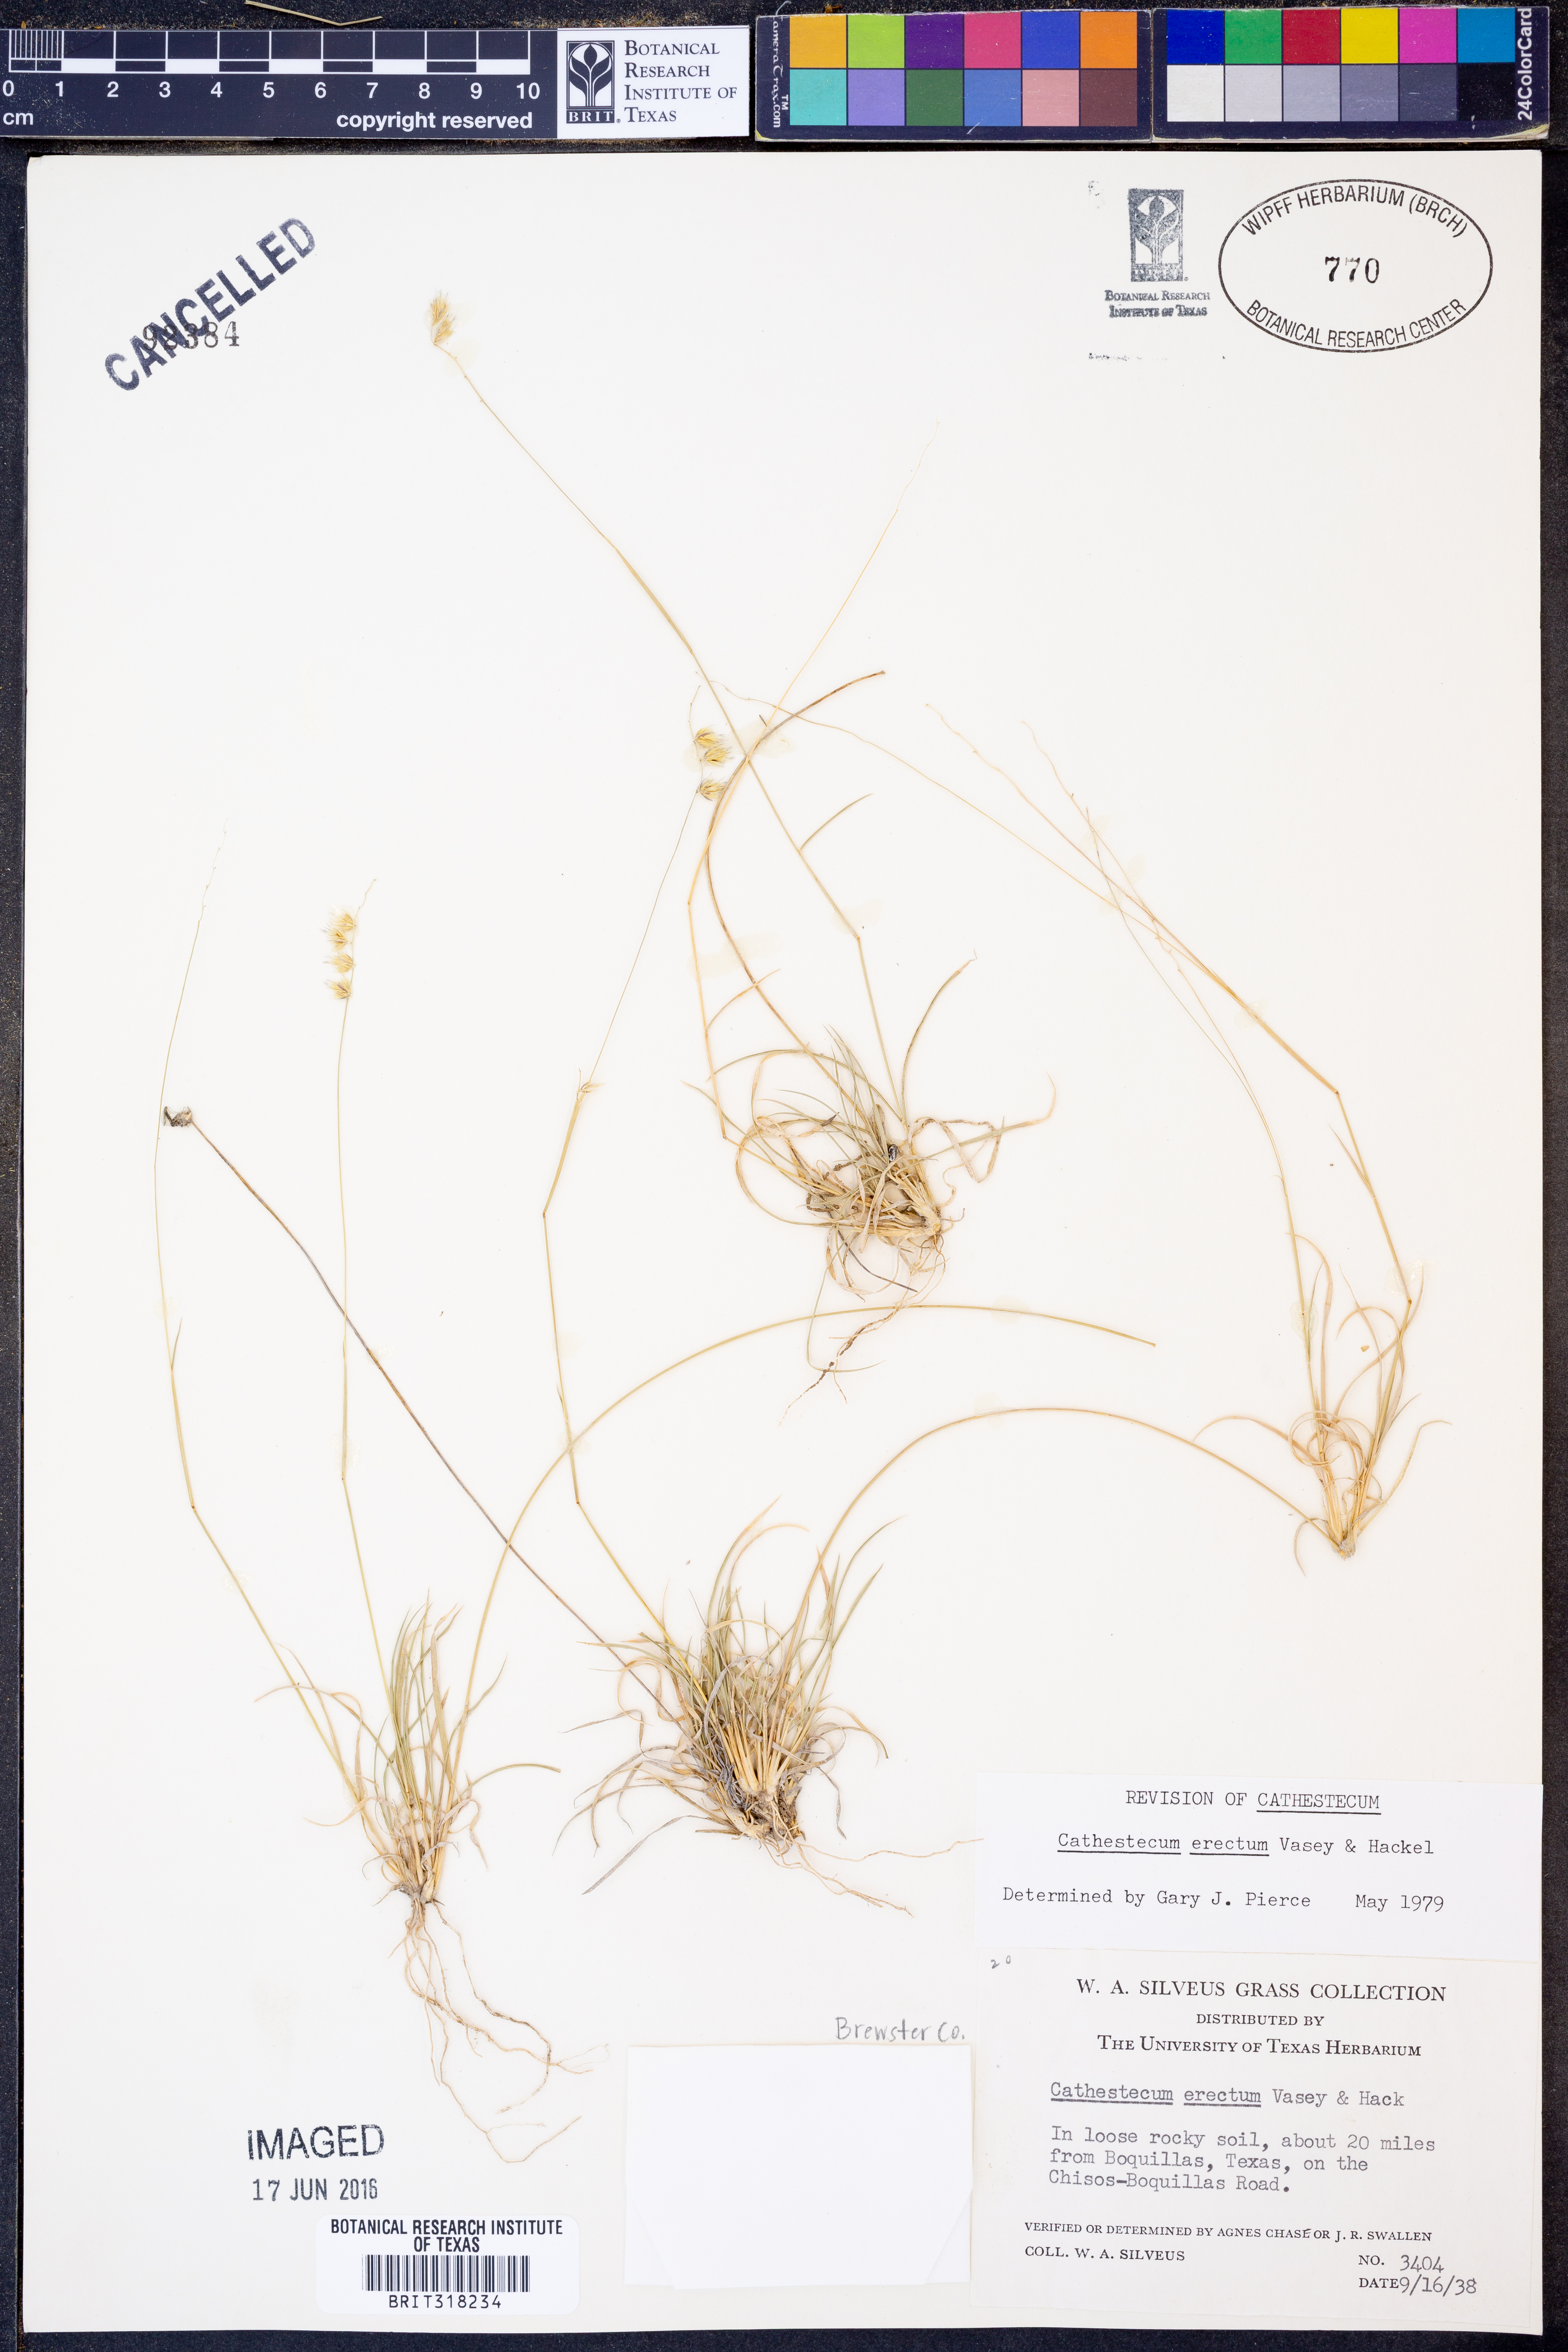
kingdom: Plantae
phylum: Tracheophyta
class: Liliopsida
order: Poales
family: Poaceae
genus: Bouteloua
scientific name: Bouteloua erecta
